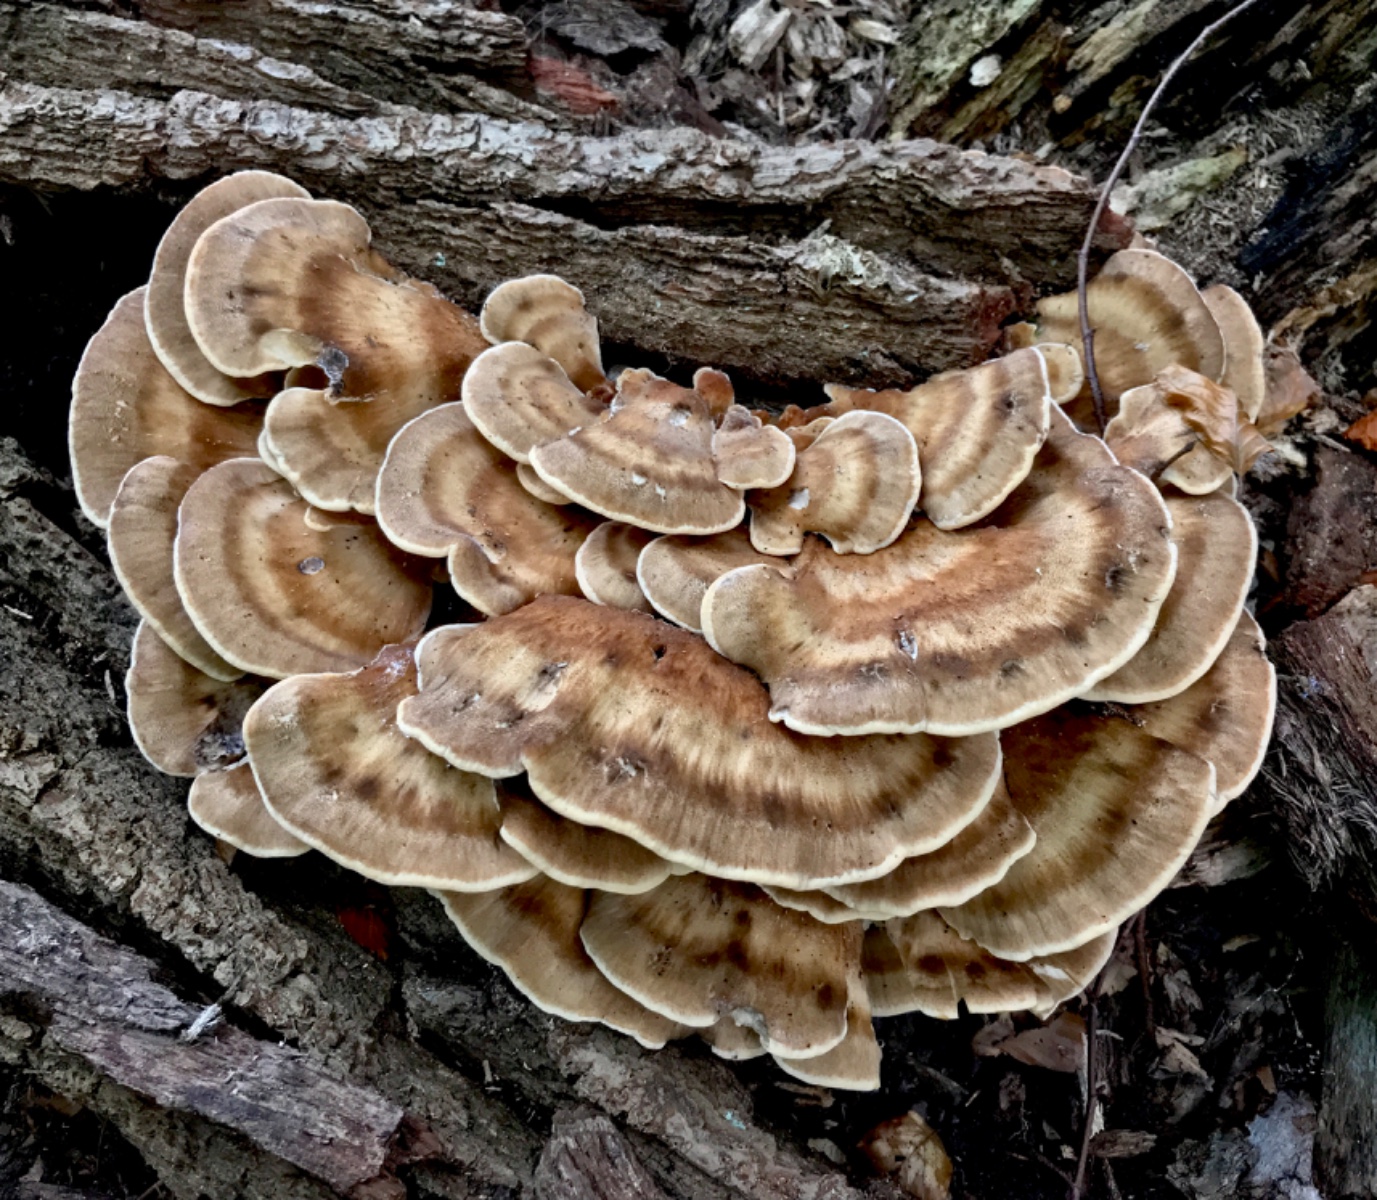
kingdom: Fungi
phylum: Basidiomycota
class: Agaricomycetes
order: Polyporales
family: Meripilaceae
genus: Meripilus
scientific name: Meripilus giganteus
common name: kæmpeporesvamp
